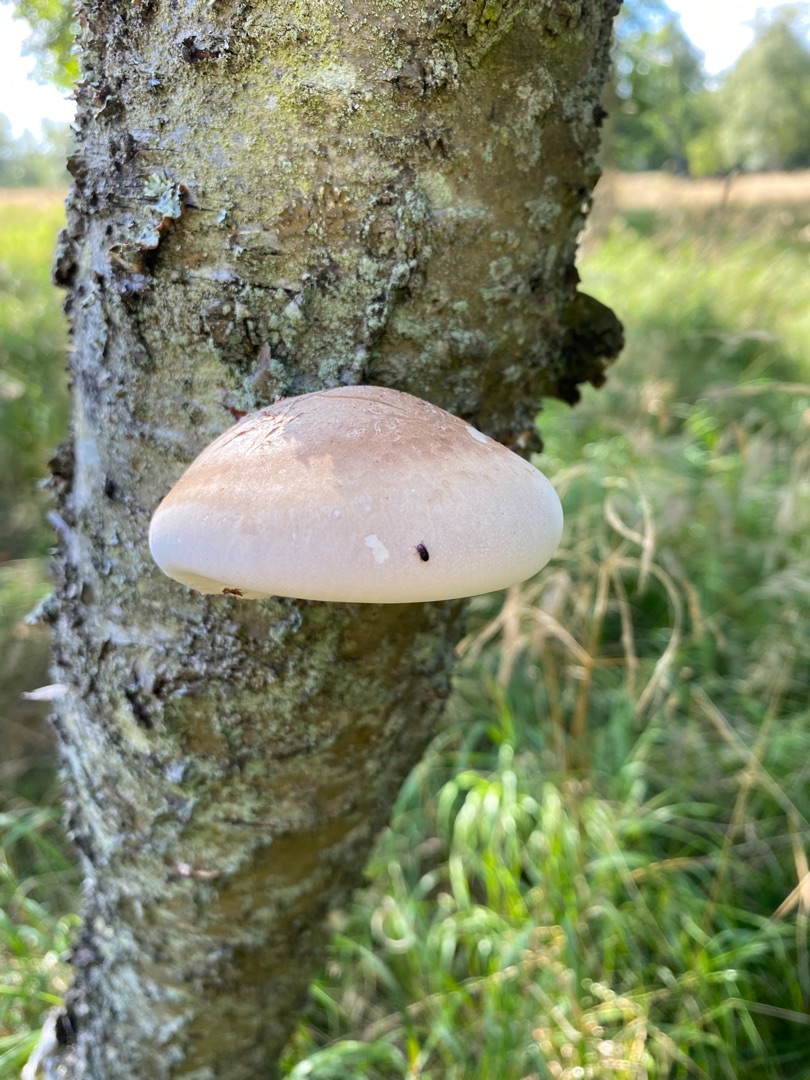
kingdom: Fungi
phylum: Basidiomycota
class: Agaricomycetes
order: Polyporales
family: Fomitopsidaceae
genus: Fomitopsis
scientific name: Fomitopsis betulina
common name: Birkeporesvamp
